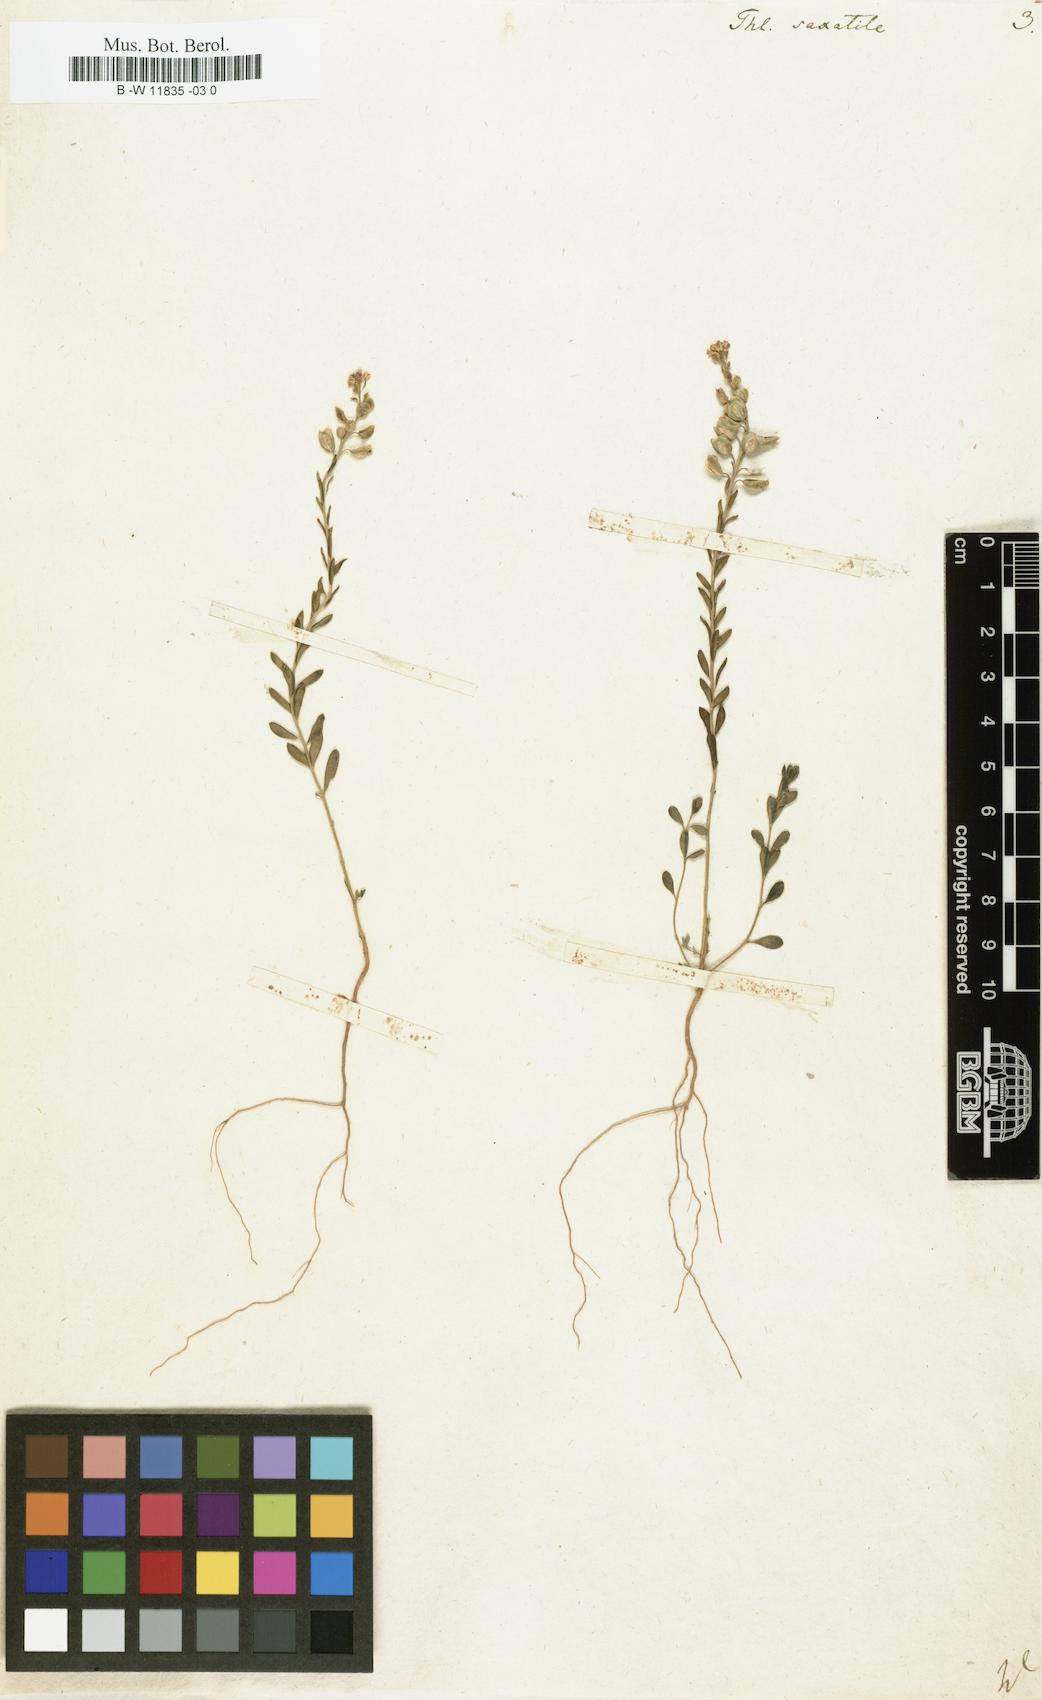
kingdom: Plantae
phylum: Tracheophyta
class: Magnoliopsida
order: Brassicales
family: Brassicaceae
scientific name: Brassicaceae
